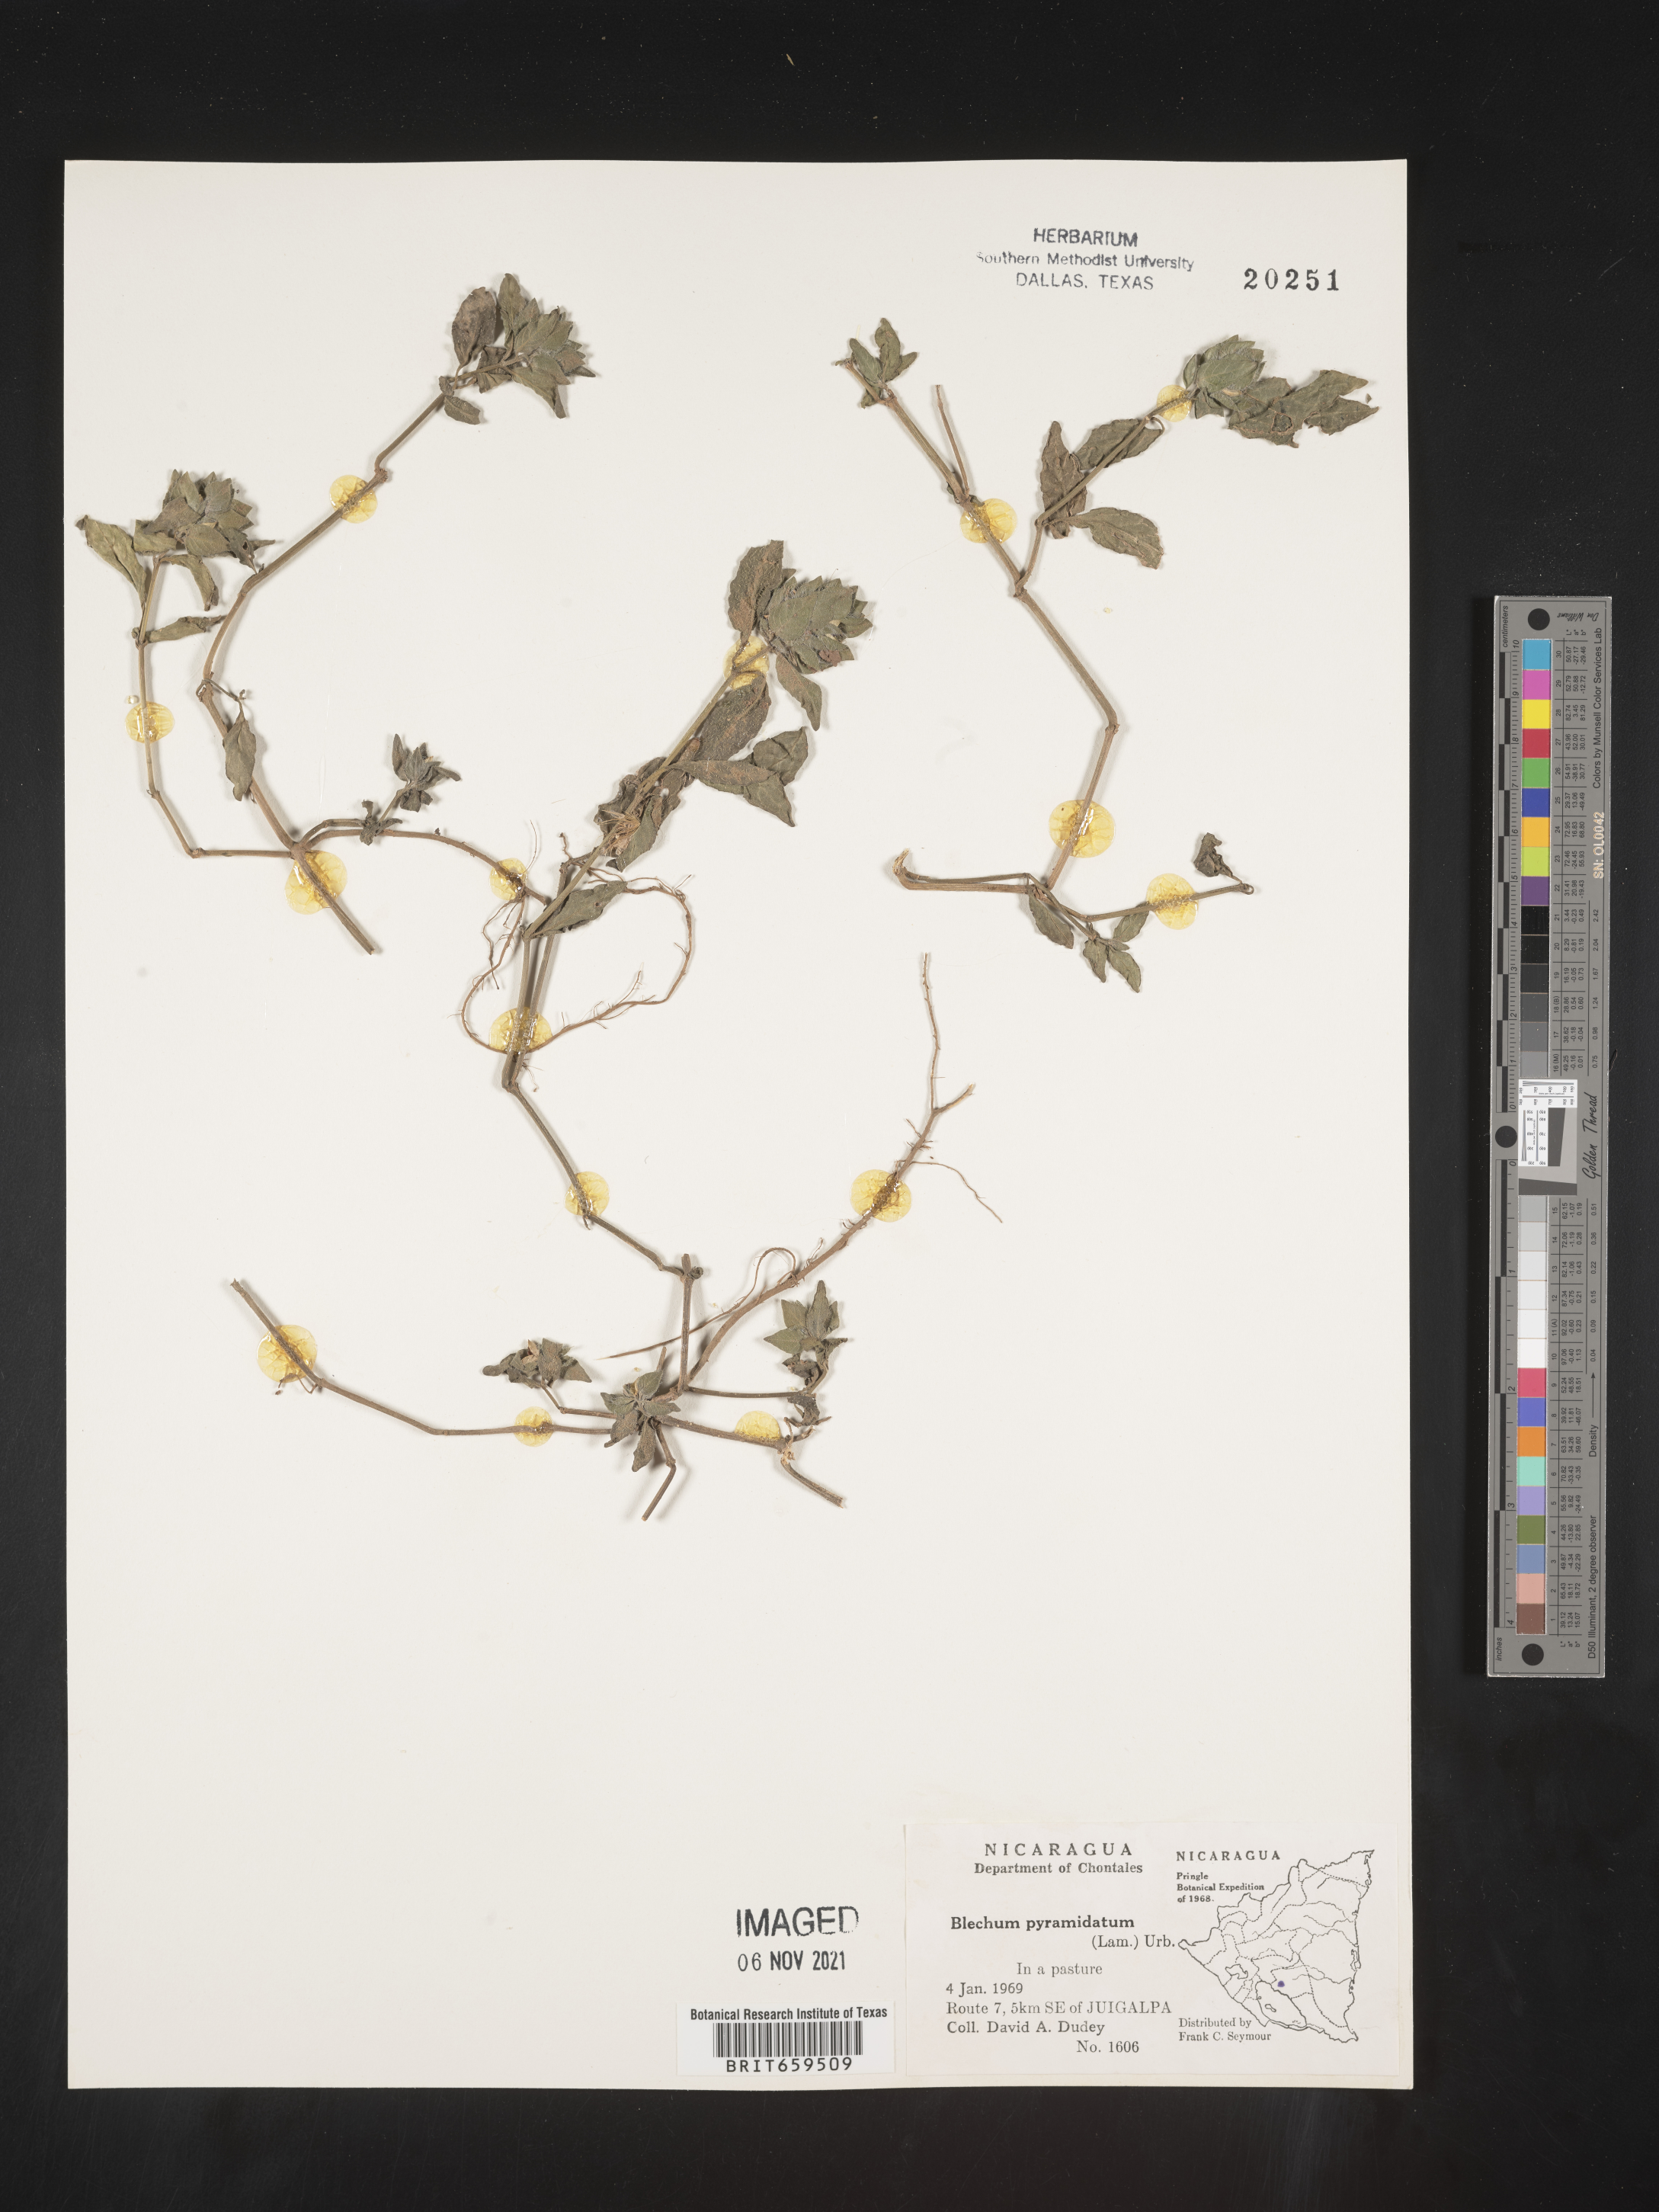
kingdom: Plantae
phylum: Tracheophyta
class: Polypodiopsida
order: Polypodiales
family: Blechnaceae
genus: Blechum
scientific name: Blechum
